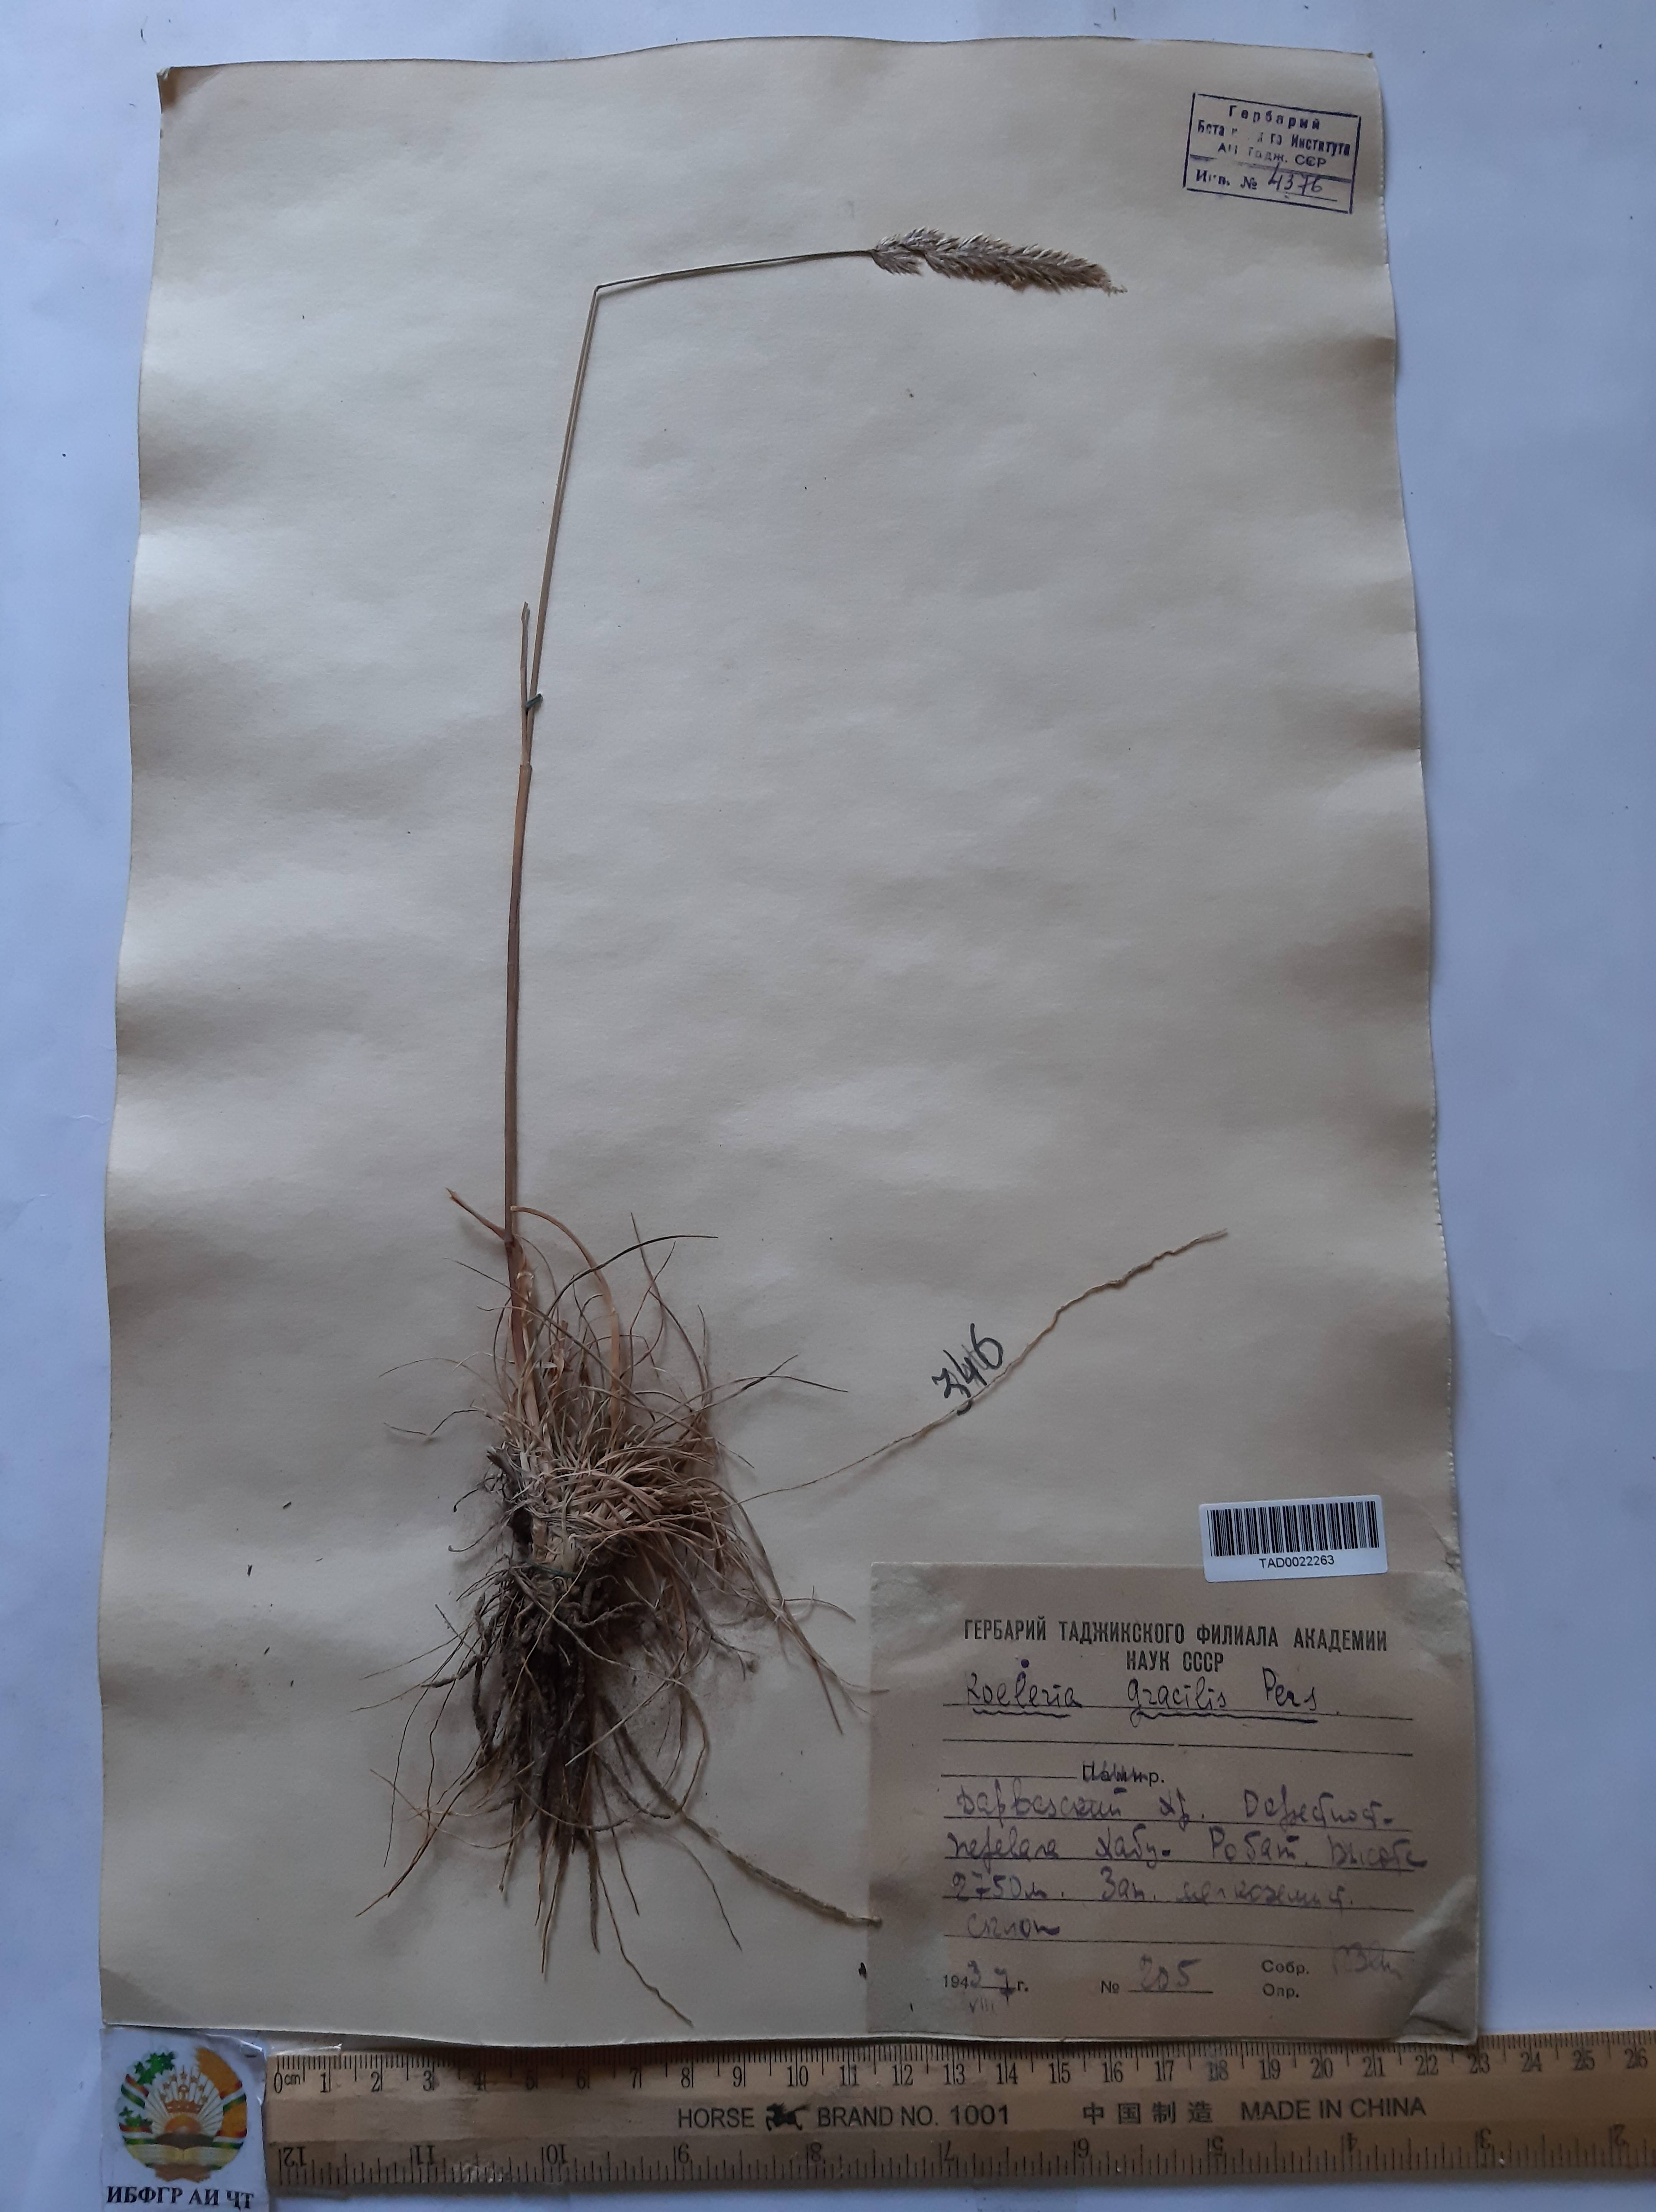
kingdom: Plantae
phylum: Tracheophyta
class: Liliopsida
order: Poales
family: Poaceae
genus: Koeleria
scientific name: Koeleria macrantha
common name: Crested hair-grass
